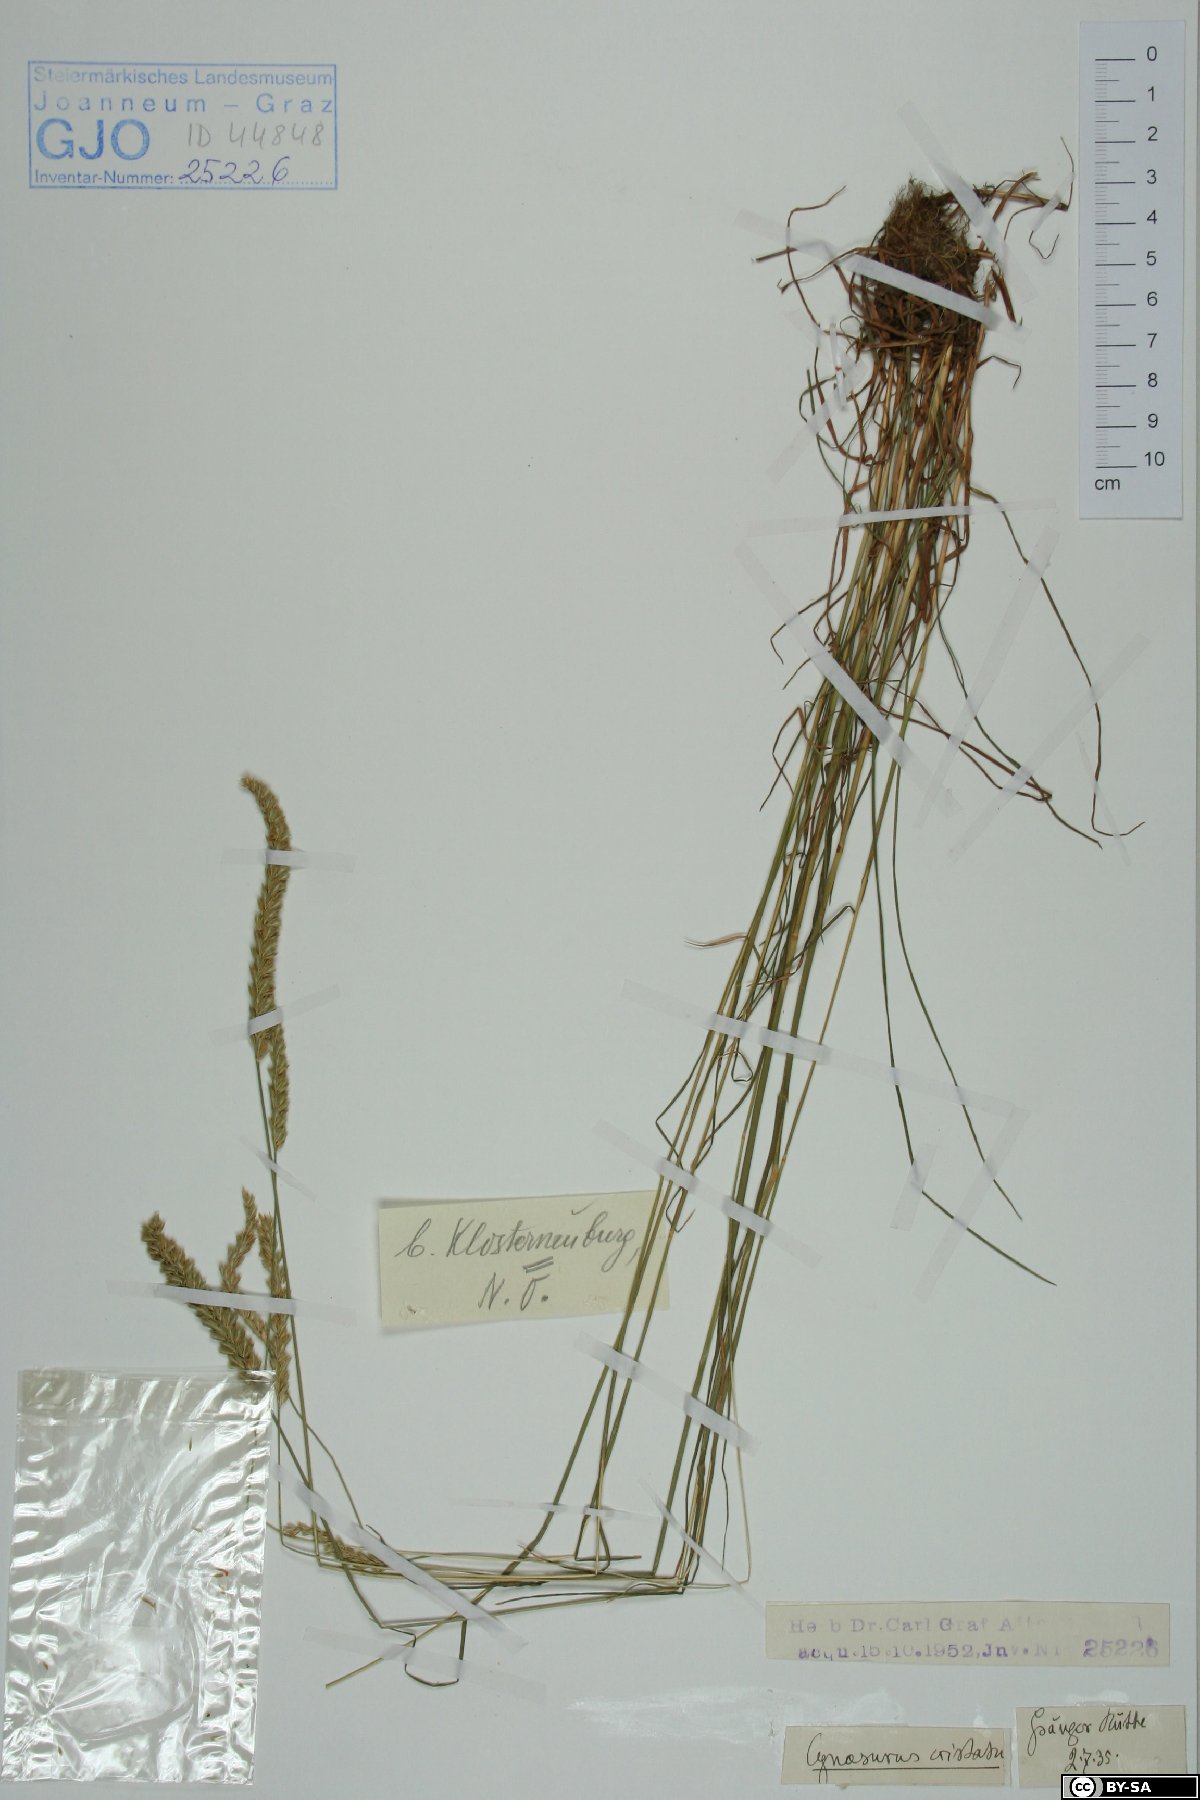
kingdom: Plantae
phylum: Tracheophyta
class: Liliopsida
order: Poales
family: Poaceae
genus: Cynosurus
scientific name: Cynosurus cristatus
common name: Crested dog's-tail
